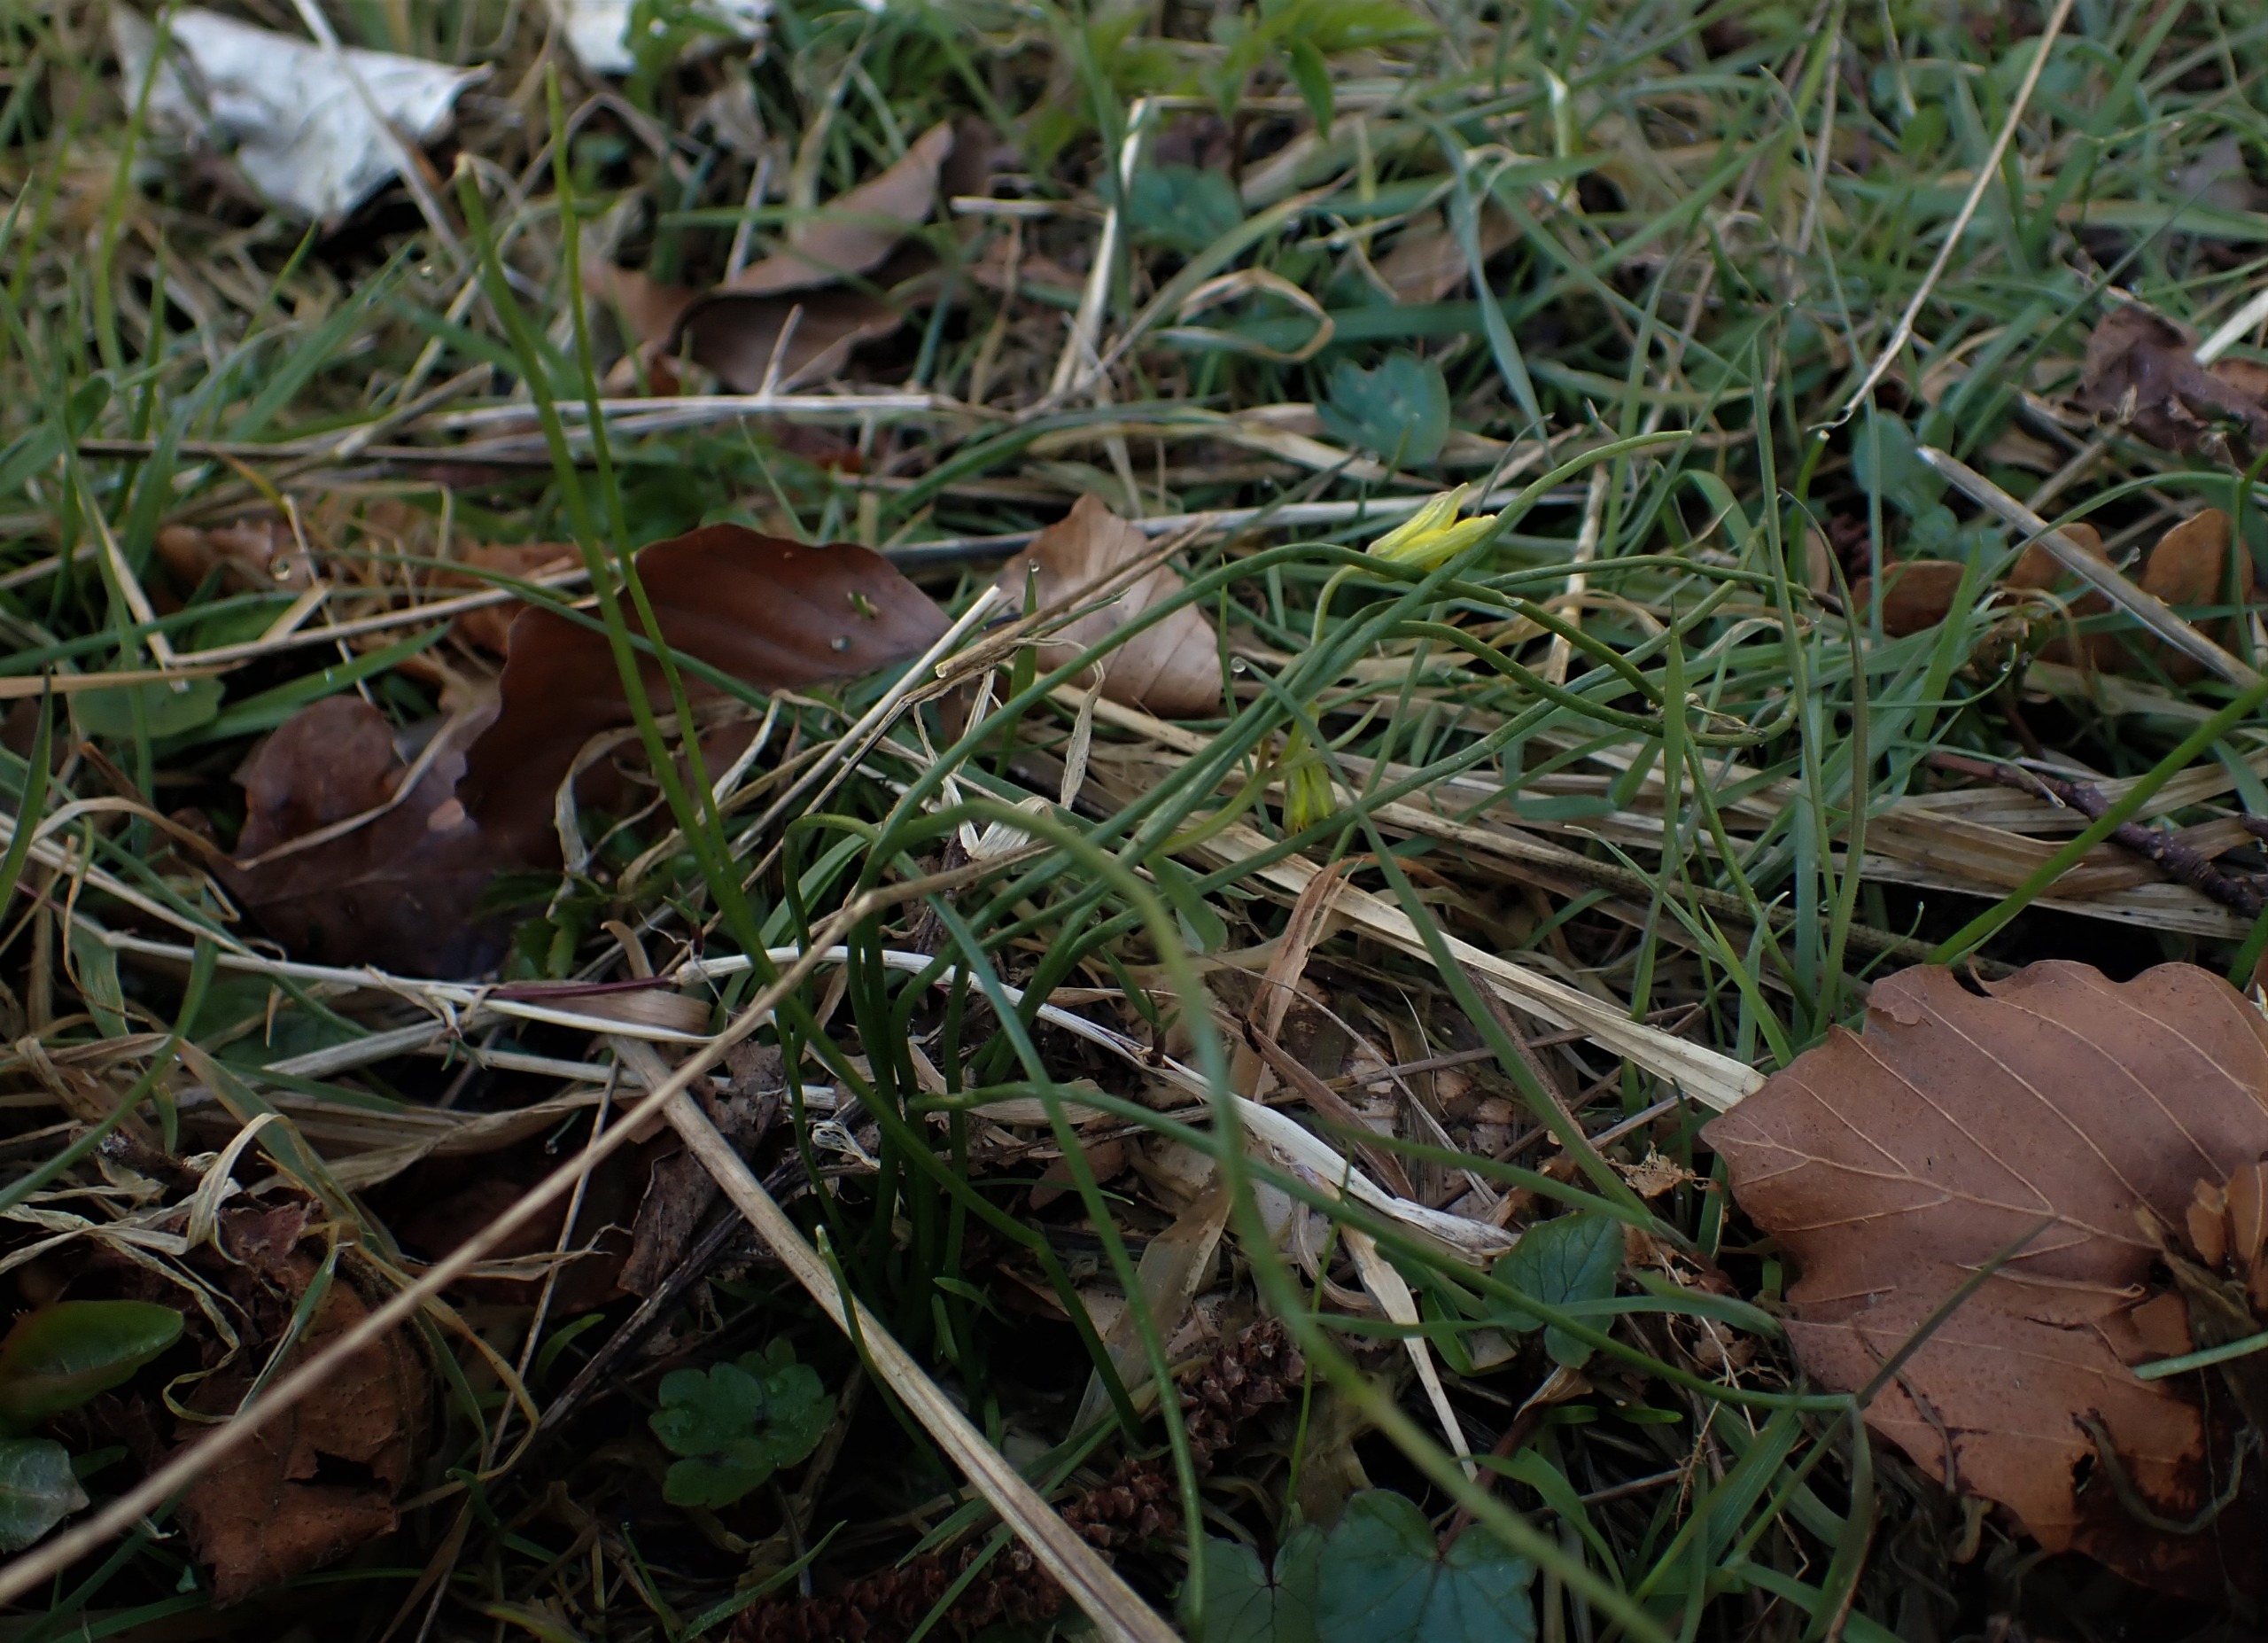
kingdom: Plantae
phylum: Tracheophyta
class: Liliopsida
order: Liliales
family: Liliaceae
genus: Gagea
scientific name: Gagea spathacea
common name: Hylster-guldstjerne
